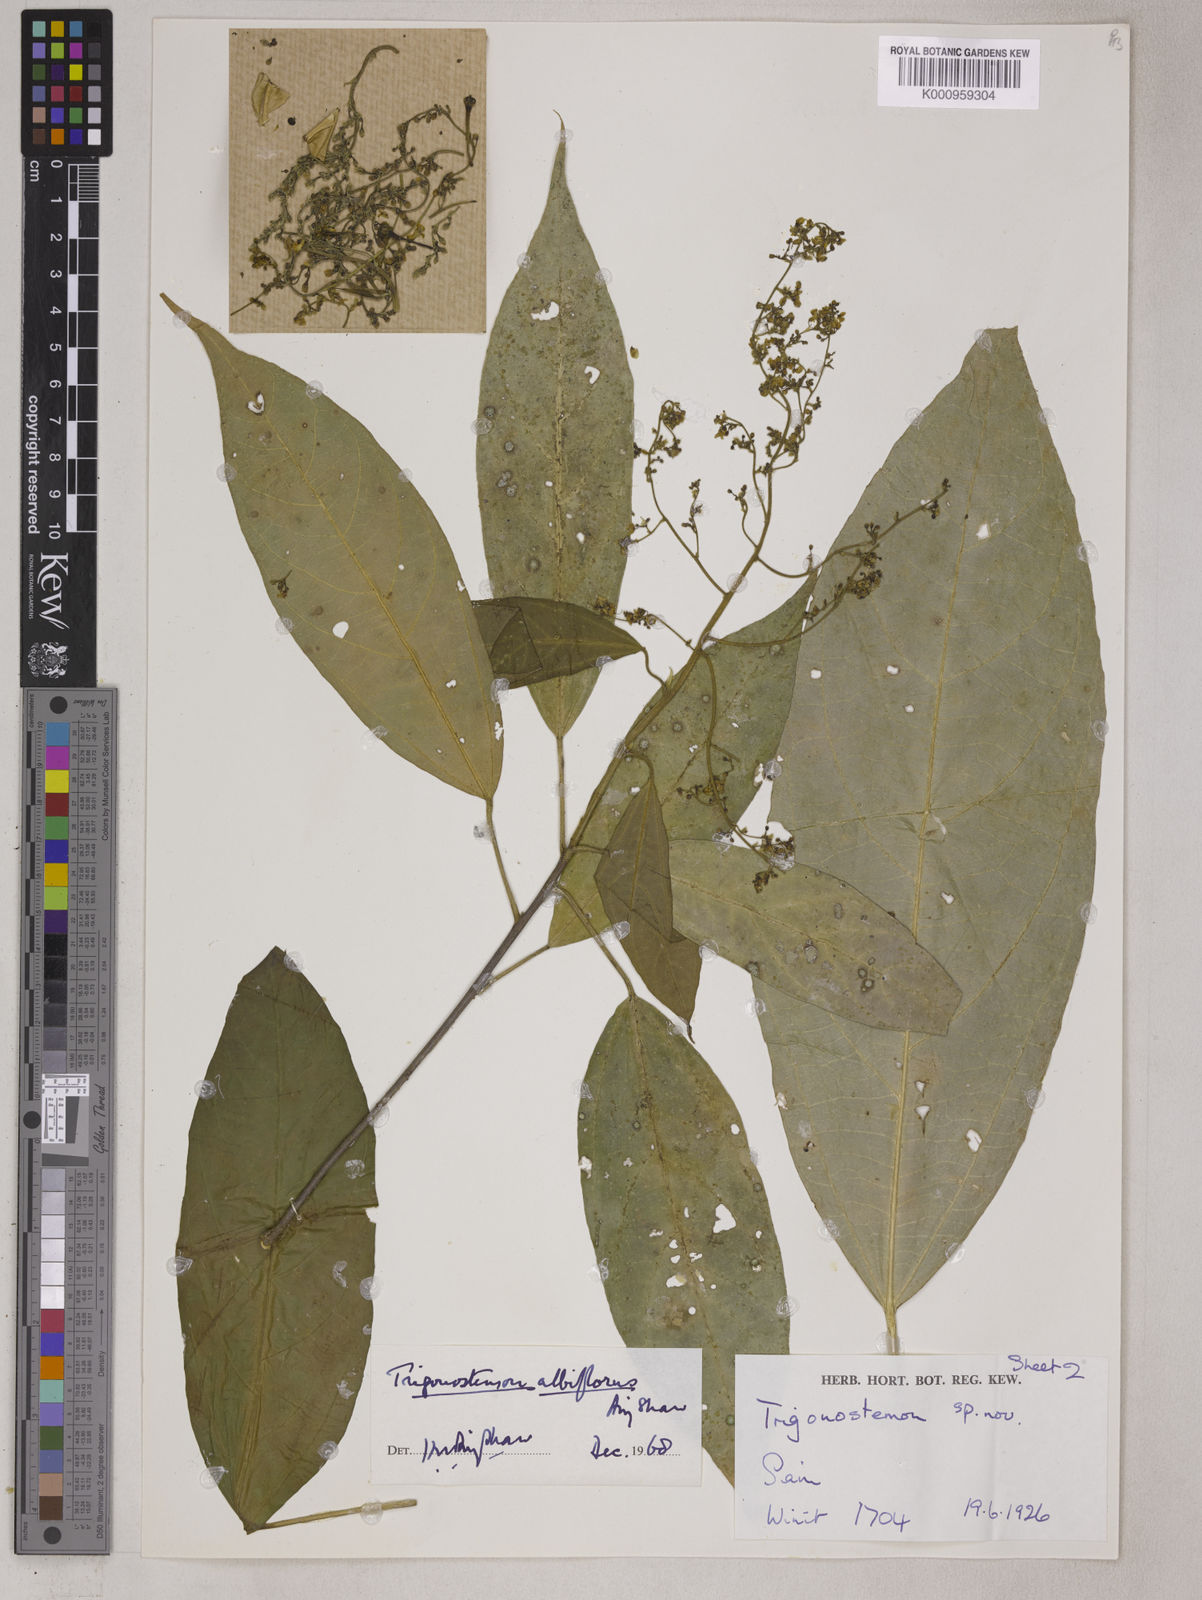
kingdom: Plantae
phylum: Tracheophyta
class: Magnoliopsida
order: Malpighiales
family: Euphorbiaceae
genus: Trigonostemon
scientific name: Trigonostemon eberhardtii
